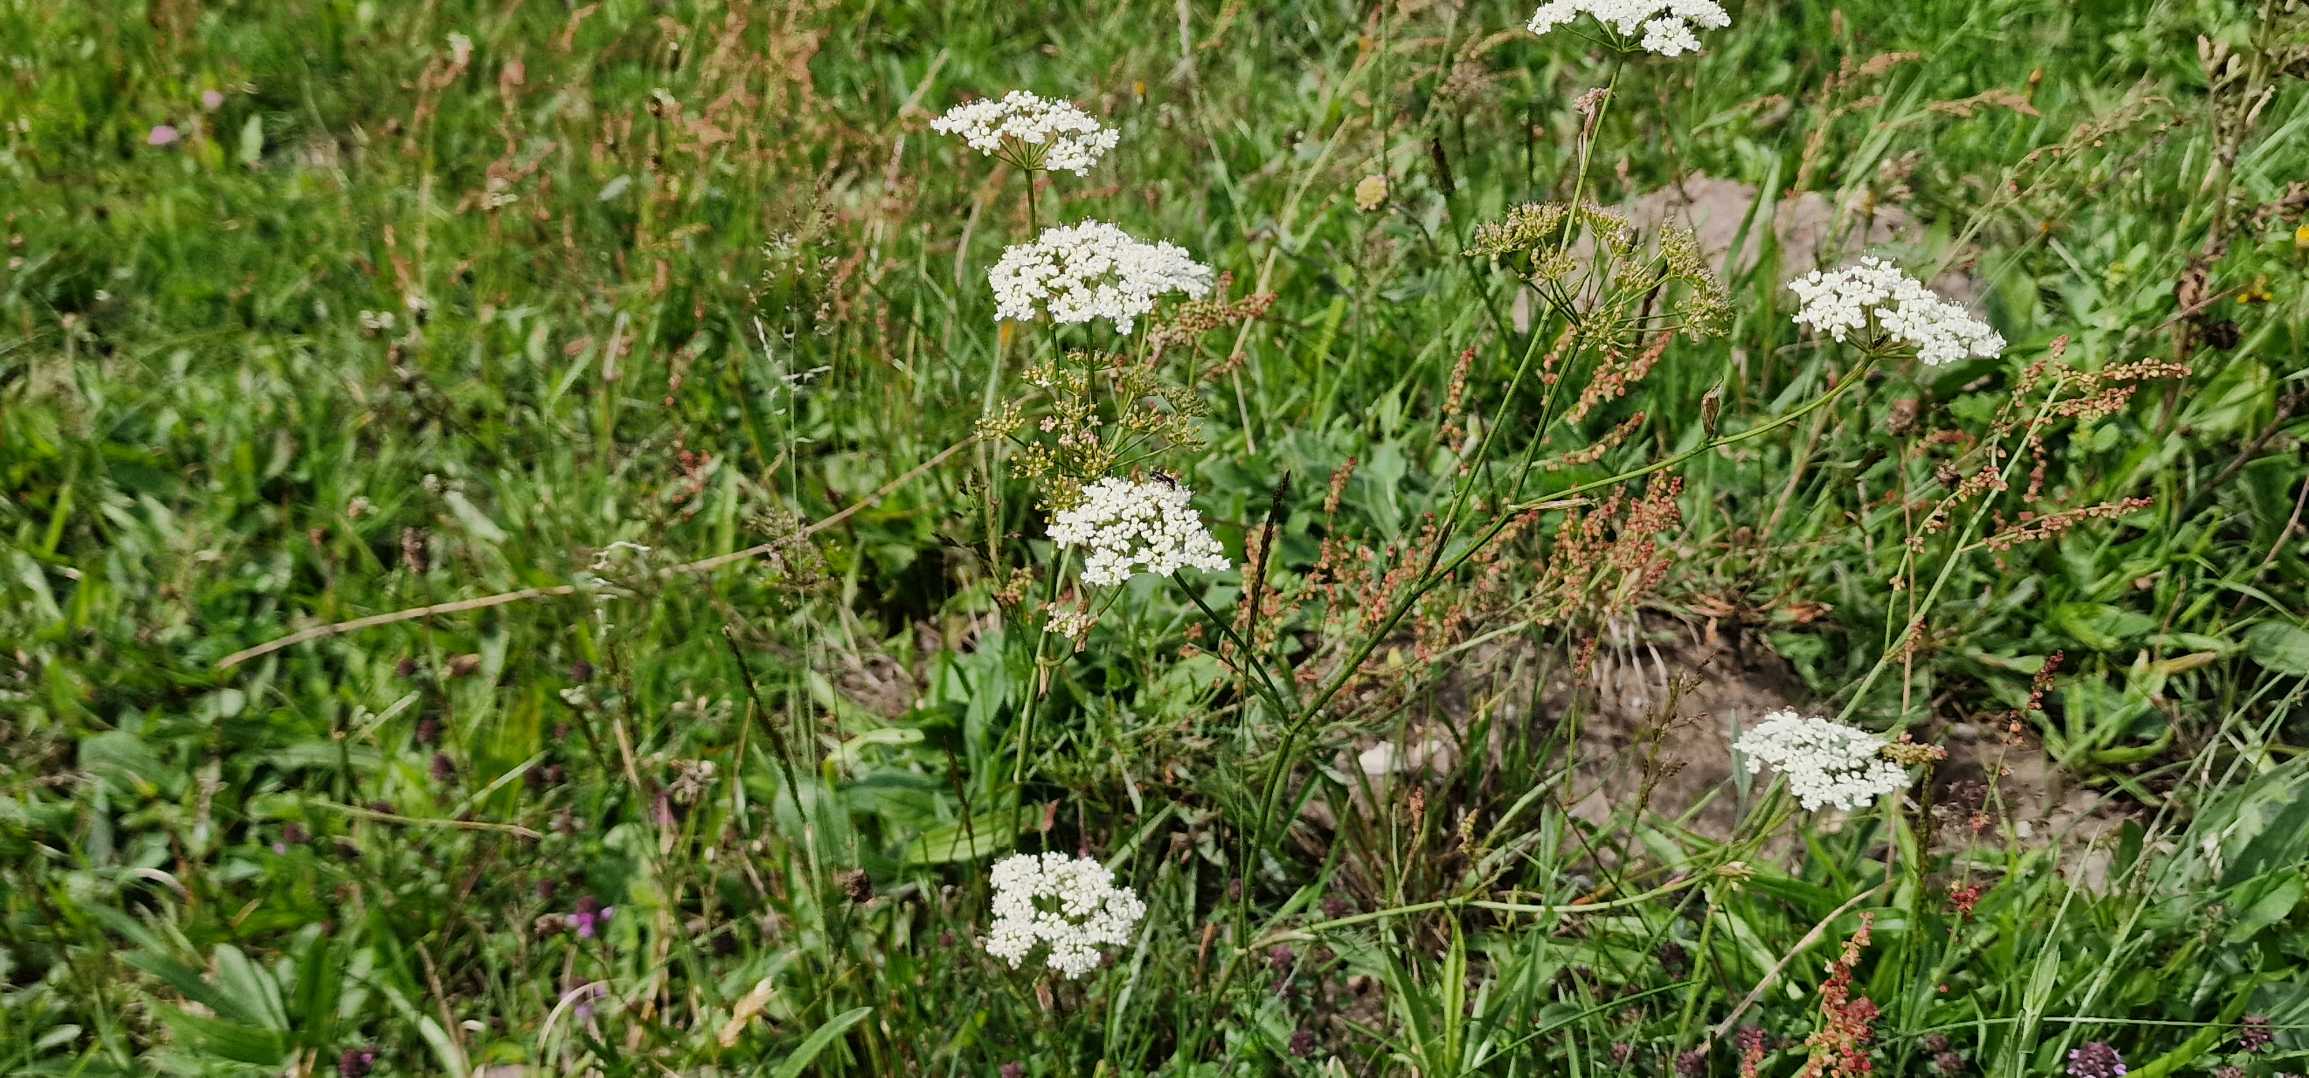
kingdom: Plantae
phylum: Tracheophyta
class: Magnoliopsida
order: Apiales
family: Apiaceae
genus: Pimpinella
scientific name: Pimpinella saxifraga
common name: Almindelig pimpinelle
